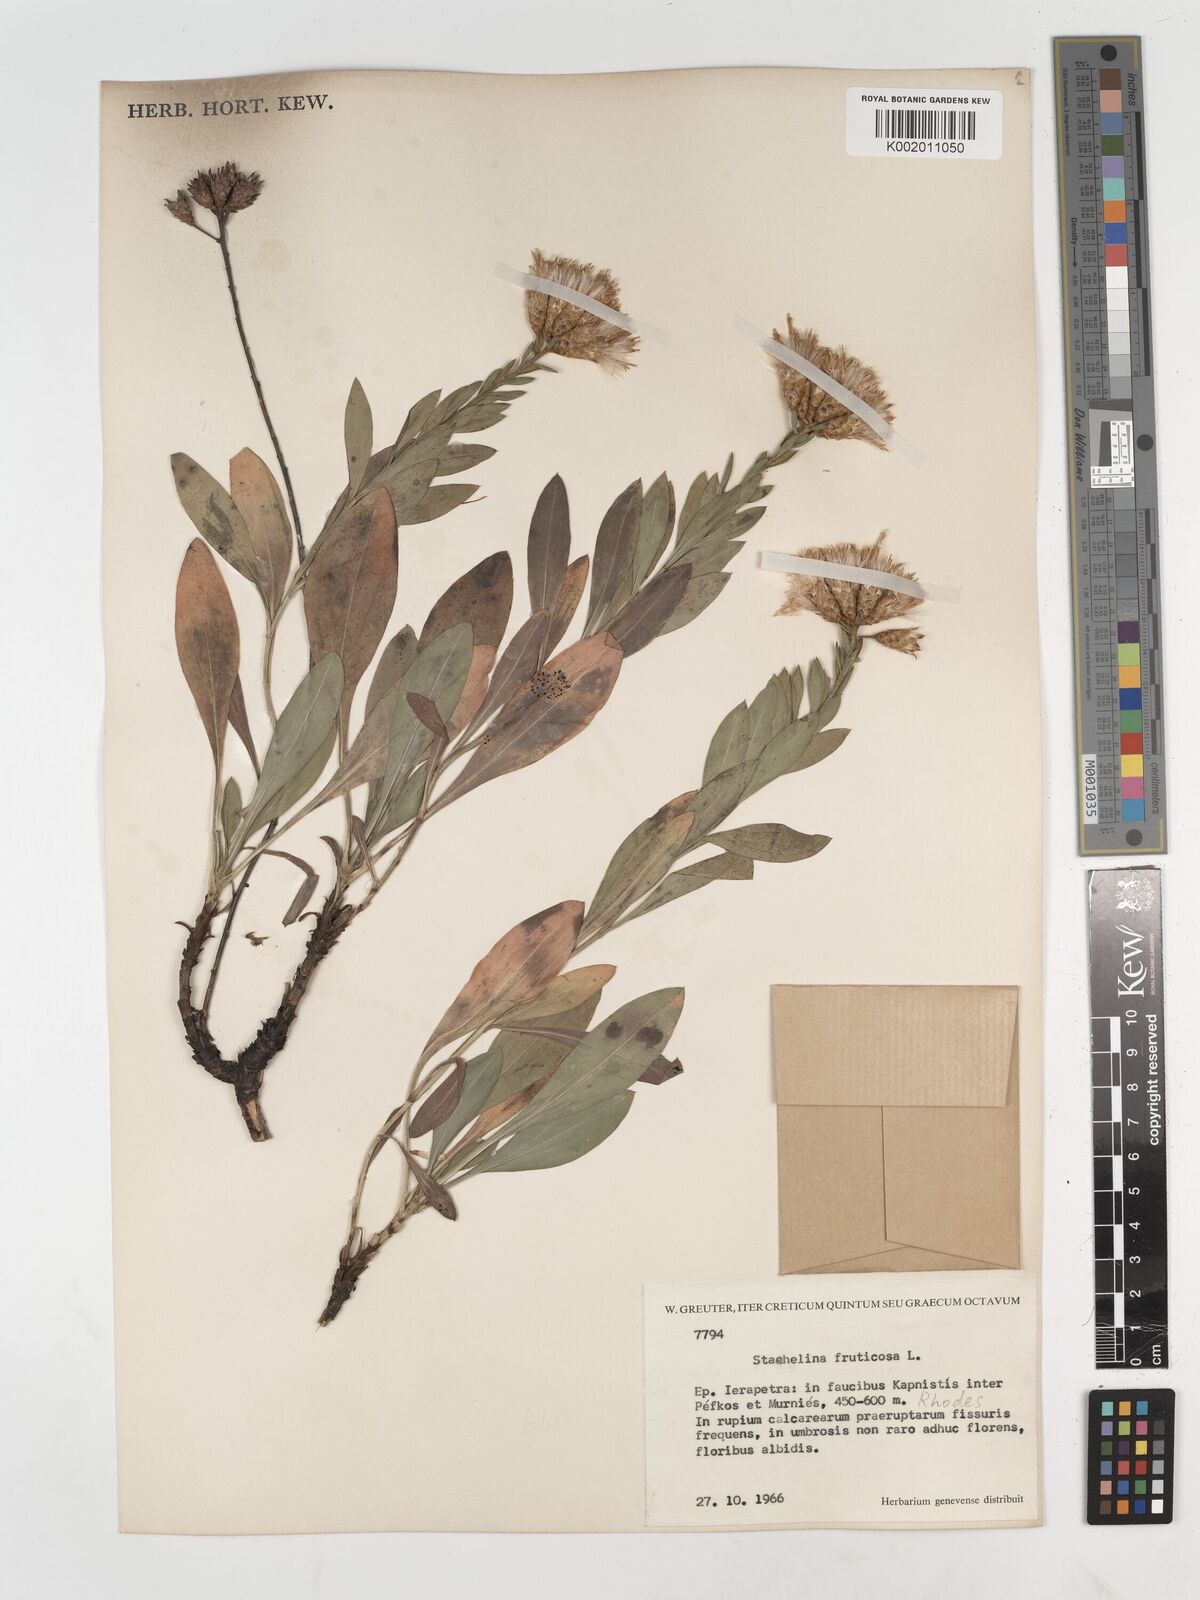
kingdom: Plantae
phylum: Tracheophyta
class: Magnoliopsida
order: Asterales
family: Asteraceae
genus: Hirtellina
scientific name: Hirtellina fruticosa
